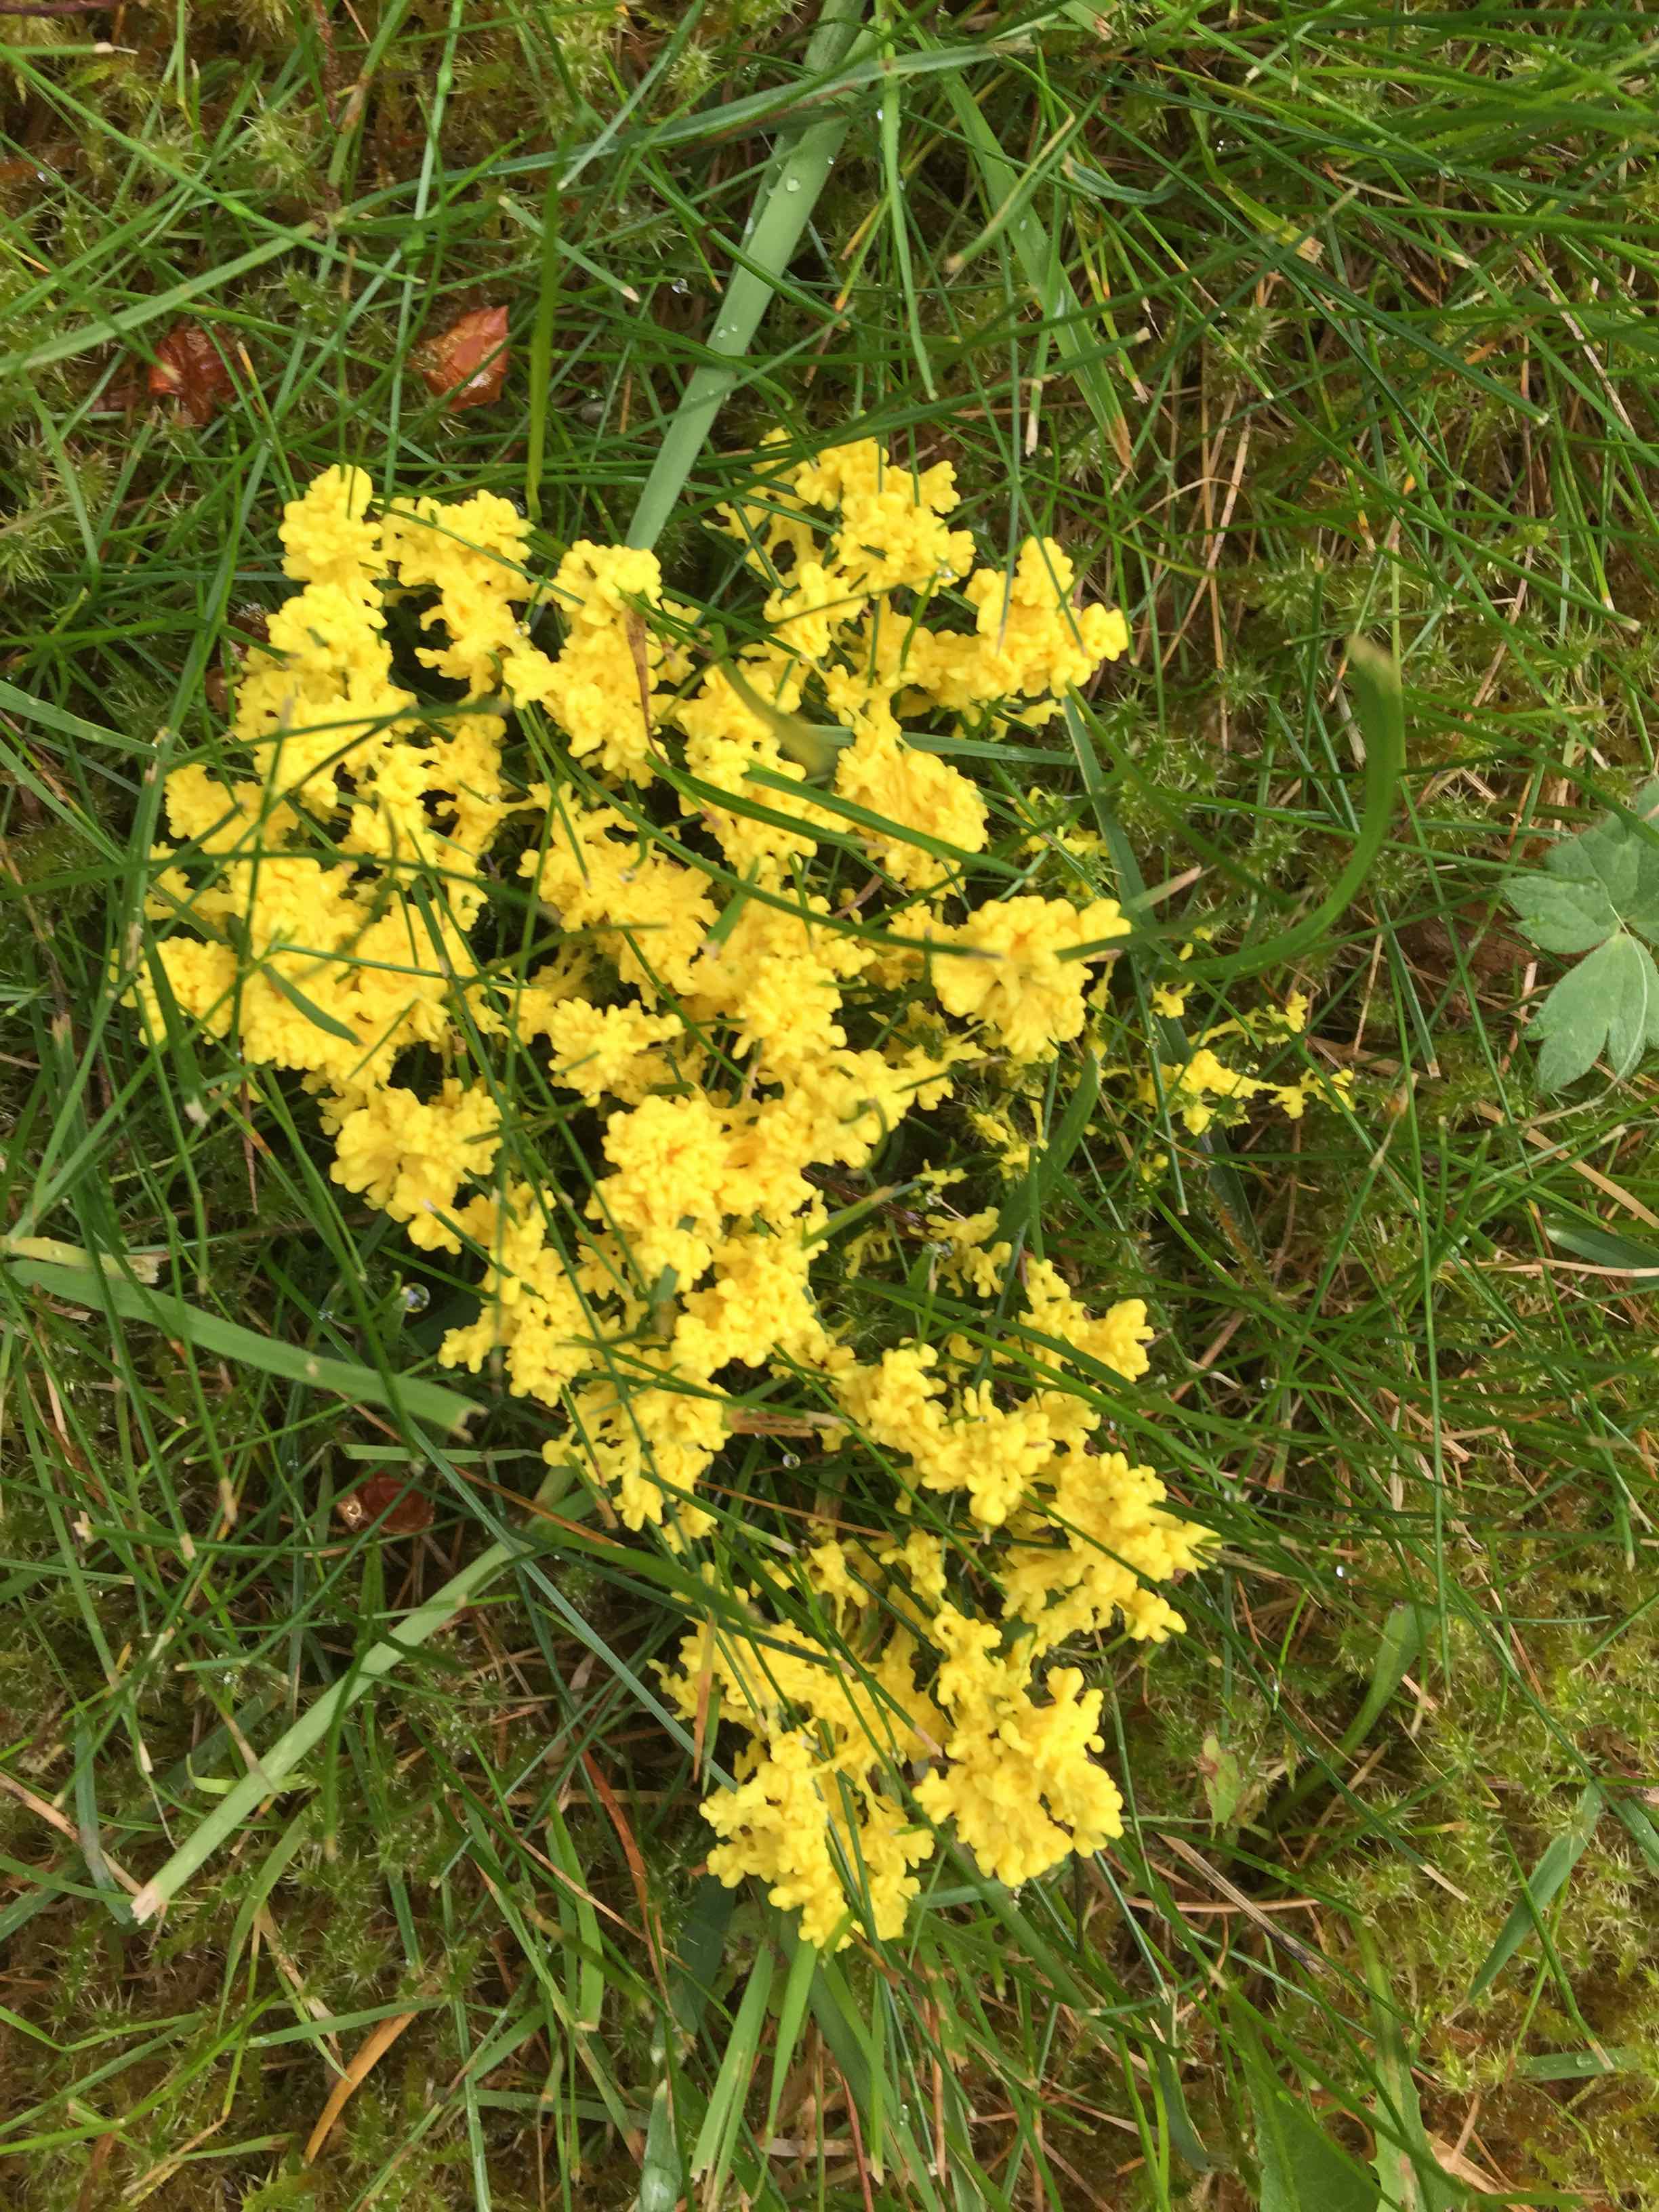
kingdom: Protozoa
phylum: Mycetozoa
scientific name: Mycetozoa
